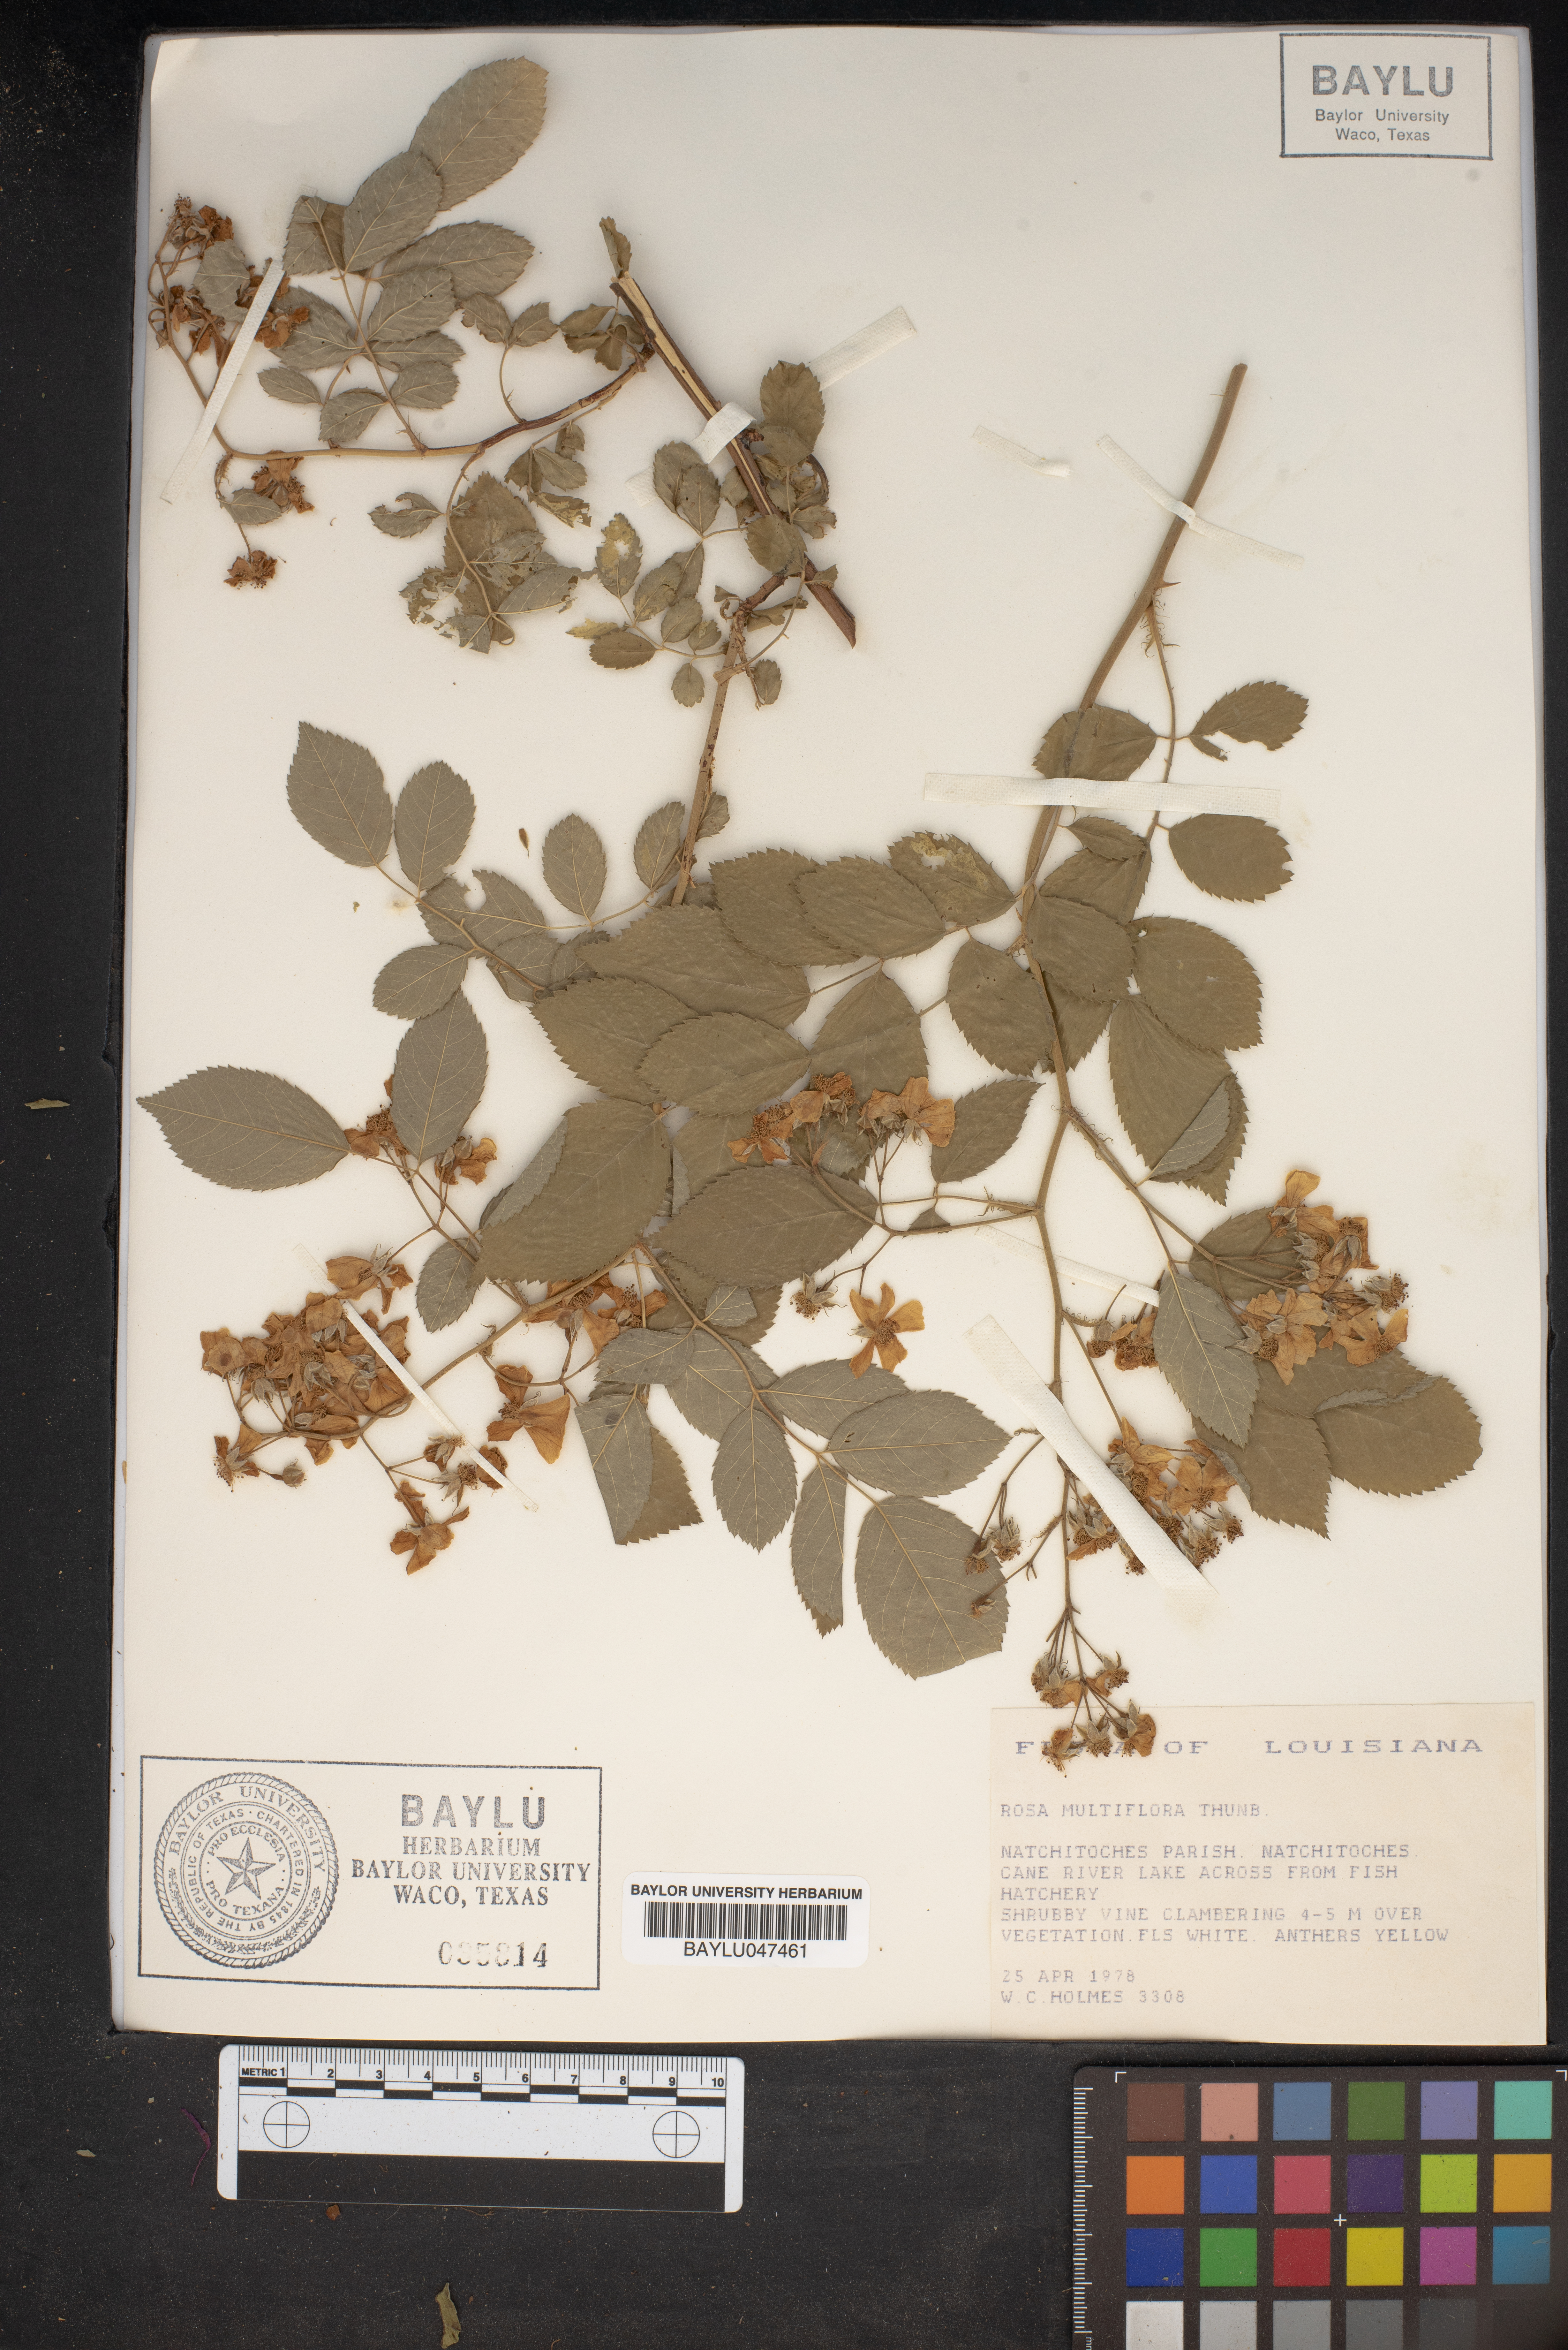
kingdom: Plantae
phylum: Tracheophyta
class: Magnoliopsida
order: Rosales
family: Rosaceae
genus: Rosa
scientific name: Rosa multiflora
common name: Multiflora rose
